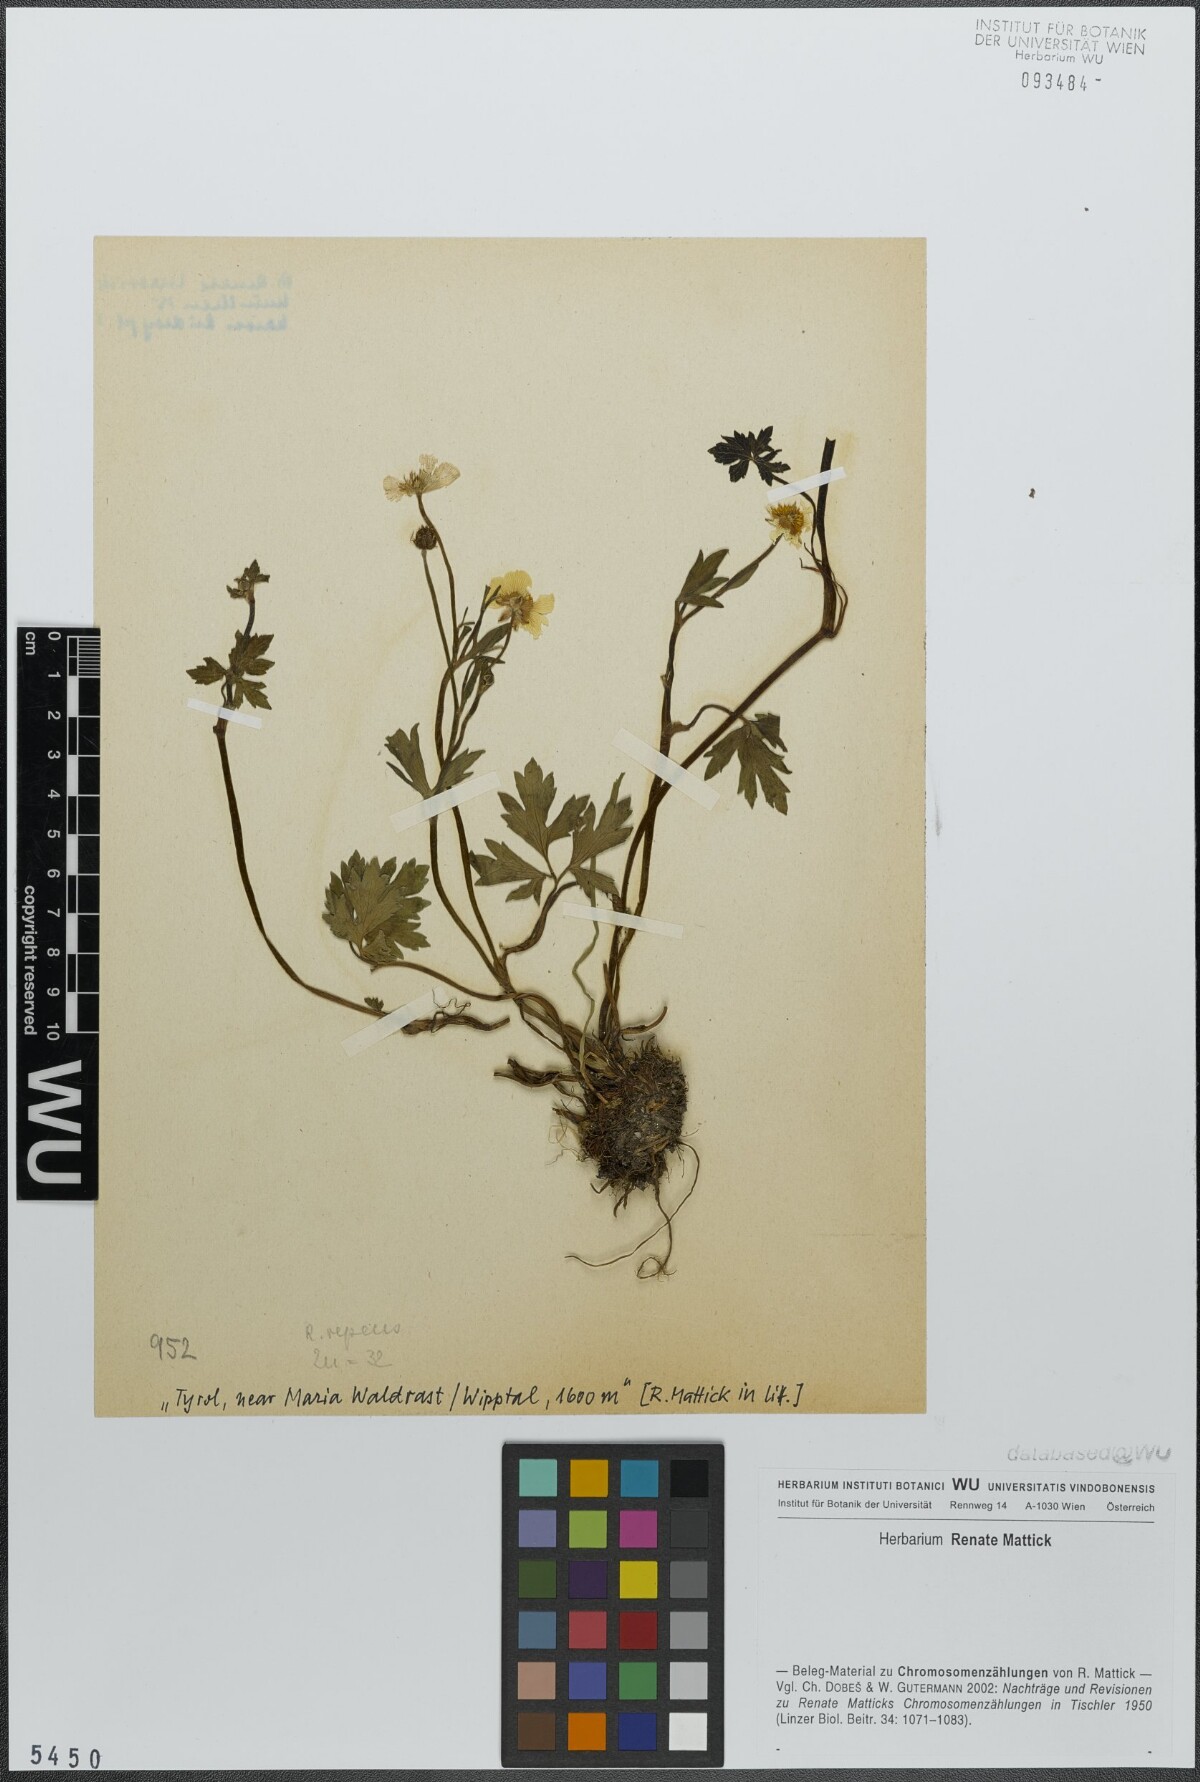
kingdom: Plantae
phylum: Tracheophyta
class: Magnoliopsida
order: Ranunculales
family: Ranunculaceae
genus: Ranunculus
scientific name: Ranunculus repens
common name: Creeping buttercup
